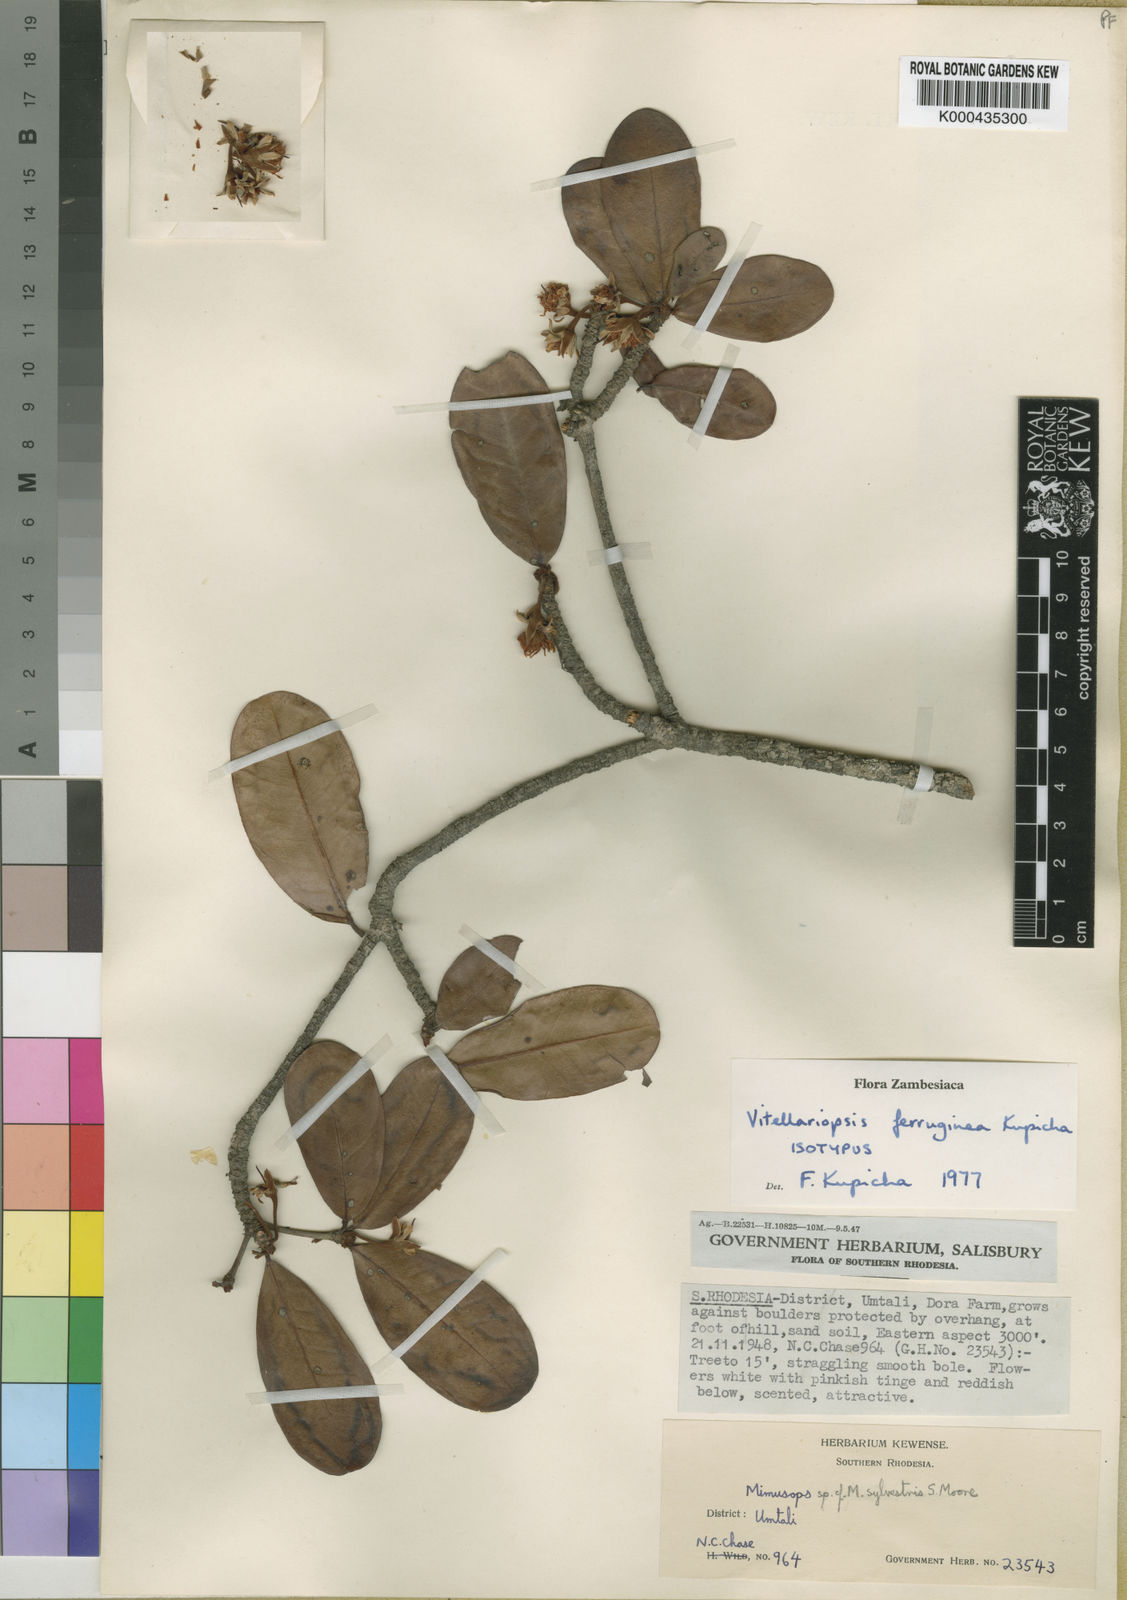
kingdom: Plantae
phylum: Tracheophyta
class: Magnoliopsida
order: Ericales
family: Sapotaceae
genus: Vitellariopsis
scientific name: Vitellariopsis ferruginea
